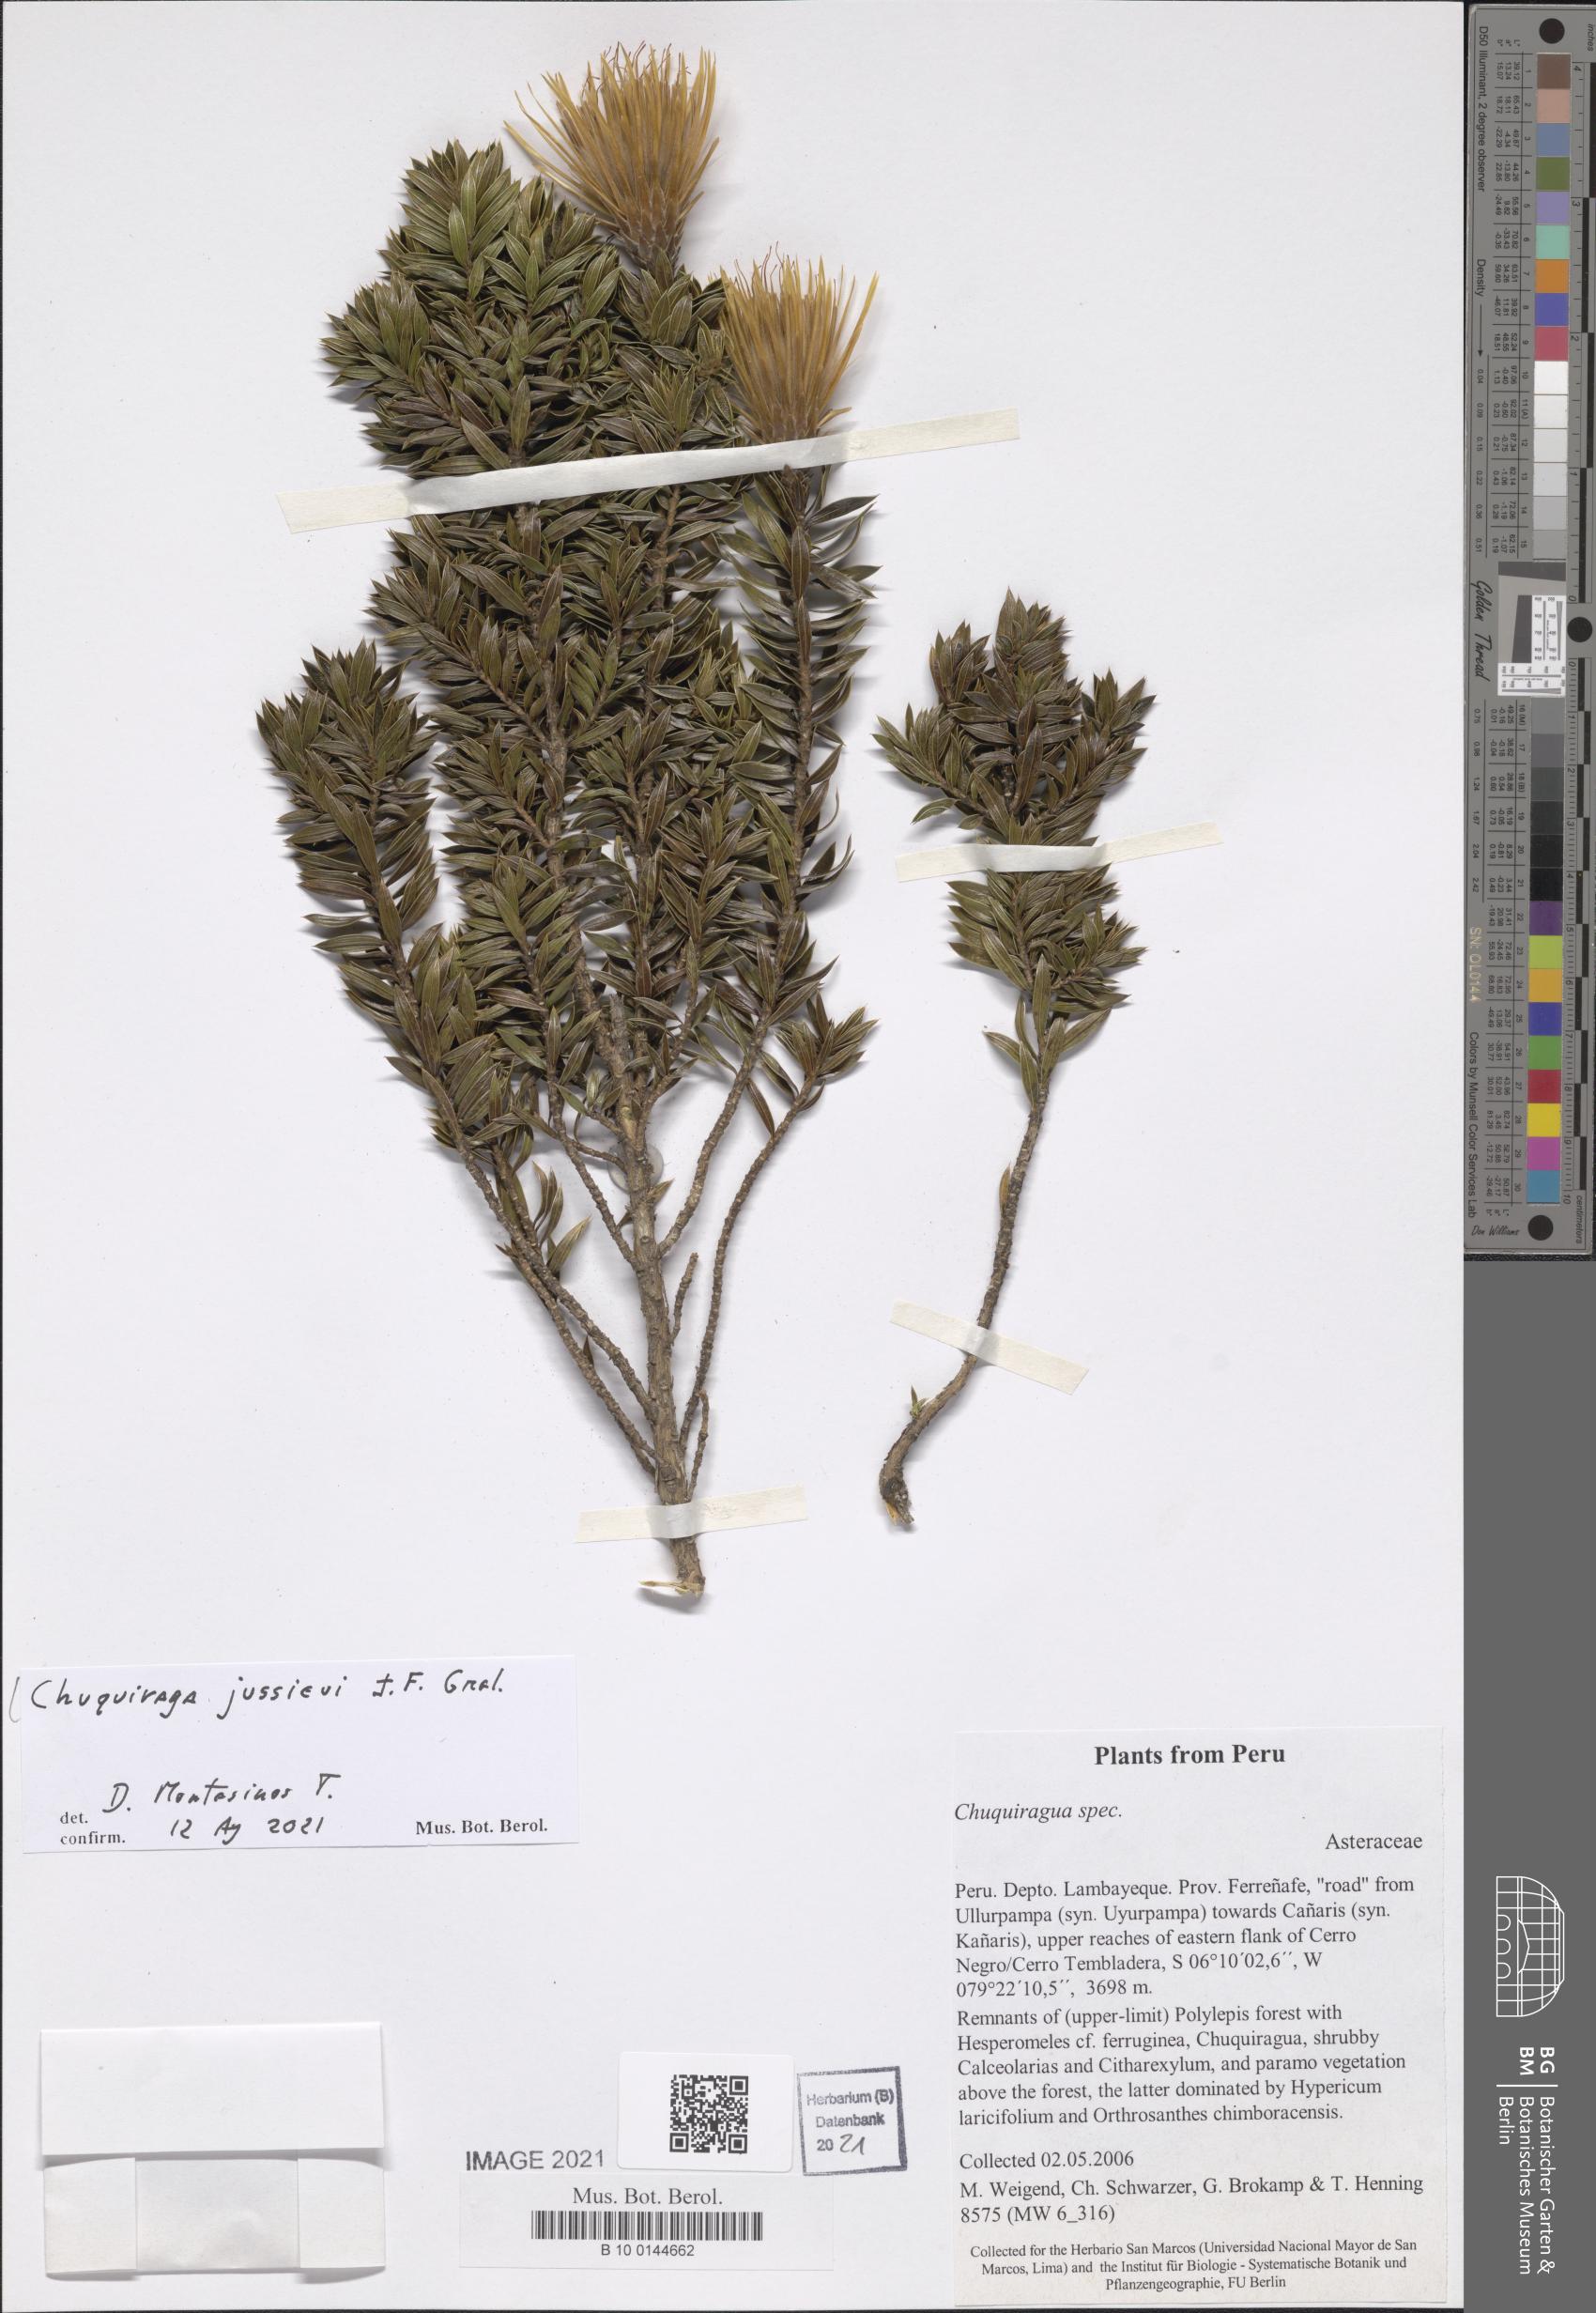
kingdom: Plantae
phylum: Tracheophyta
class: Magnoliopsida
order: Asterales
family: Asteraceae
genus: Chuquiraga
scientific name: Chuquiraga jussieui
